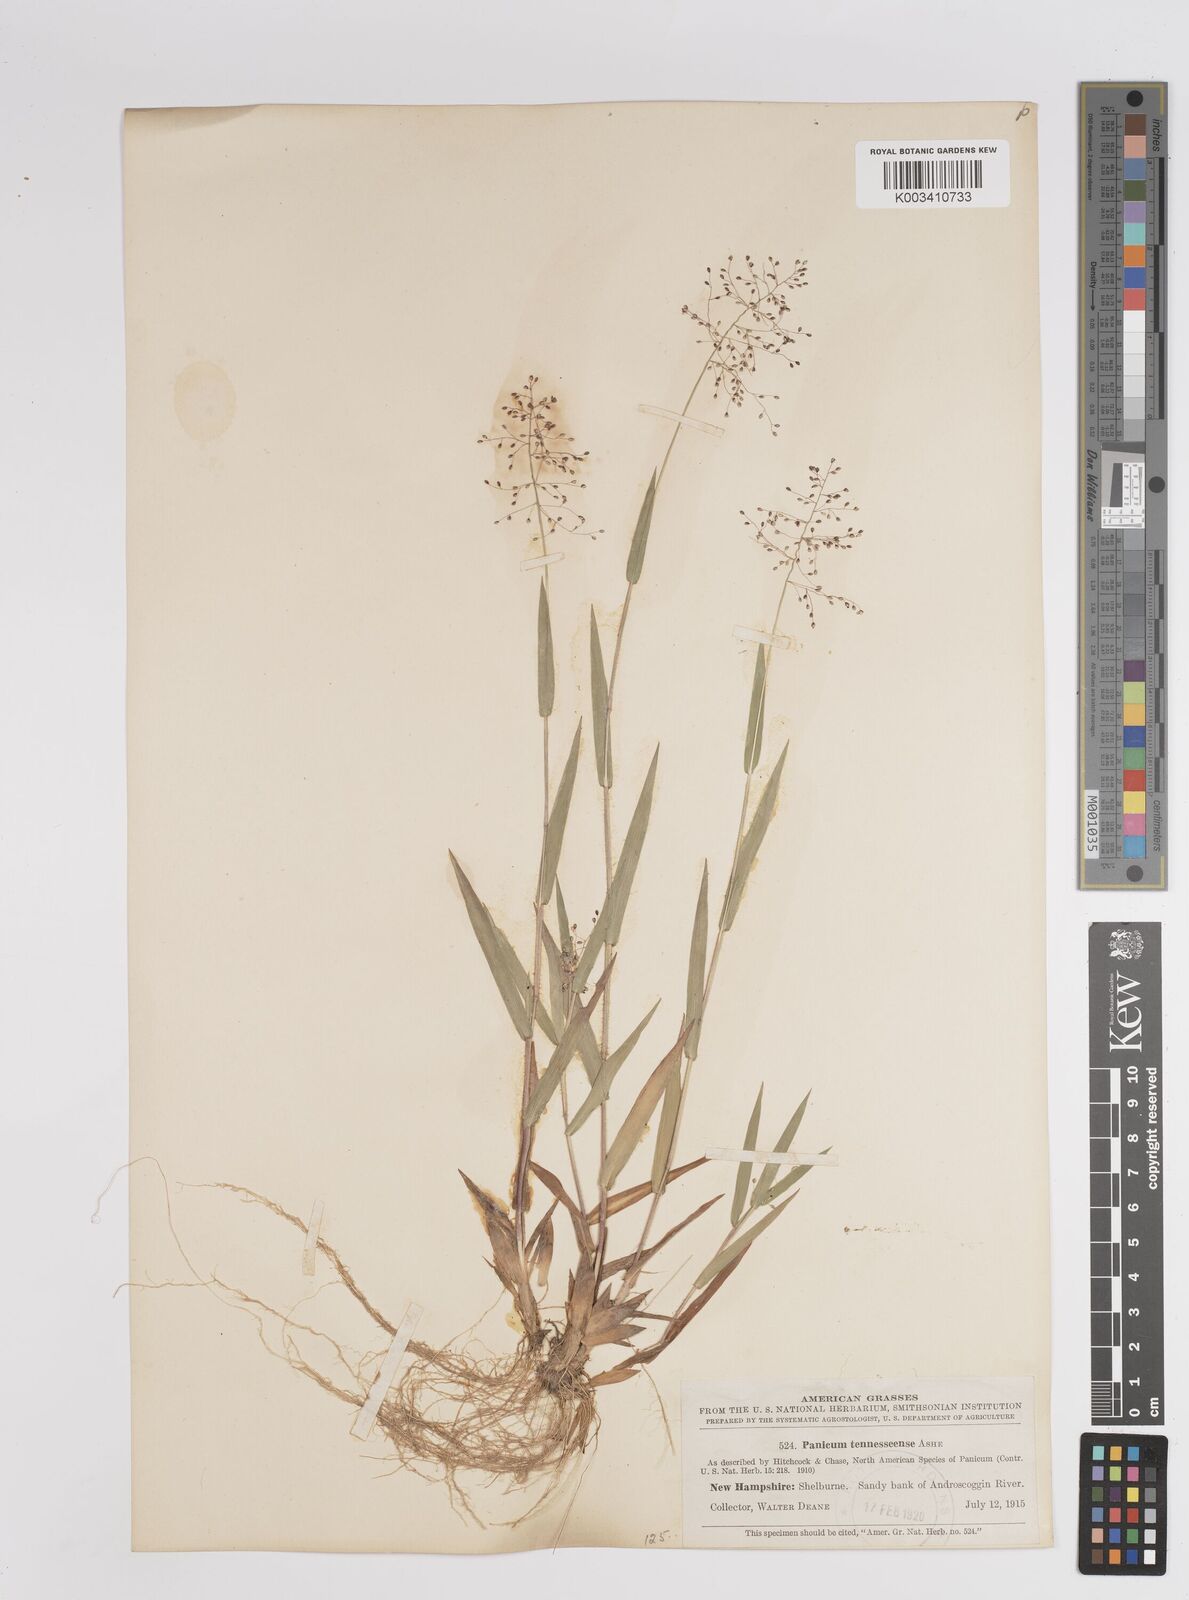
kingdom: Plantae
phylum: Tracheophyta
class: Liliopsida
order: Poales
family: Poaceae
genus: Dichanthelium
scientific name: Dichanthelium acuminatum
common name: Hairy panic grass
